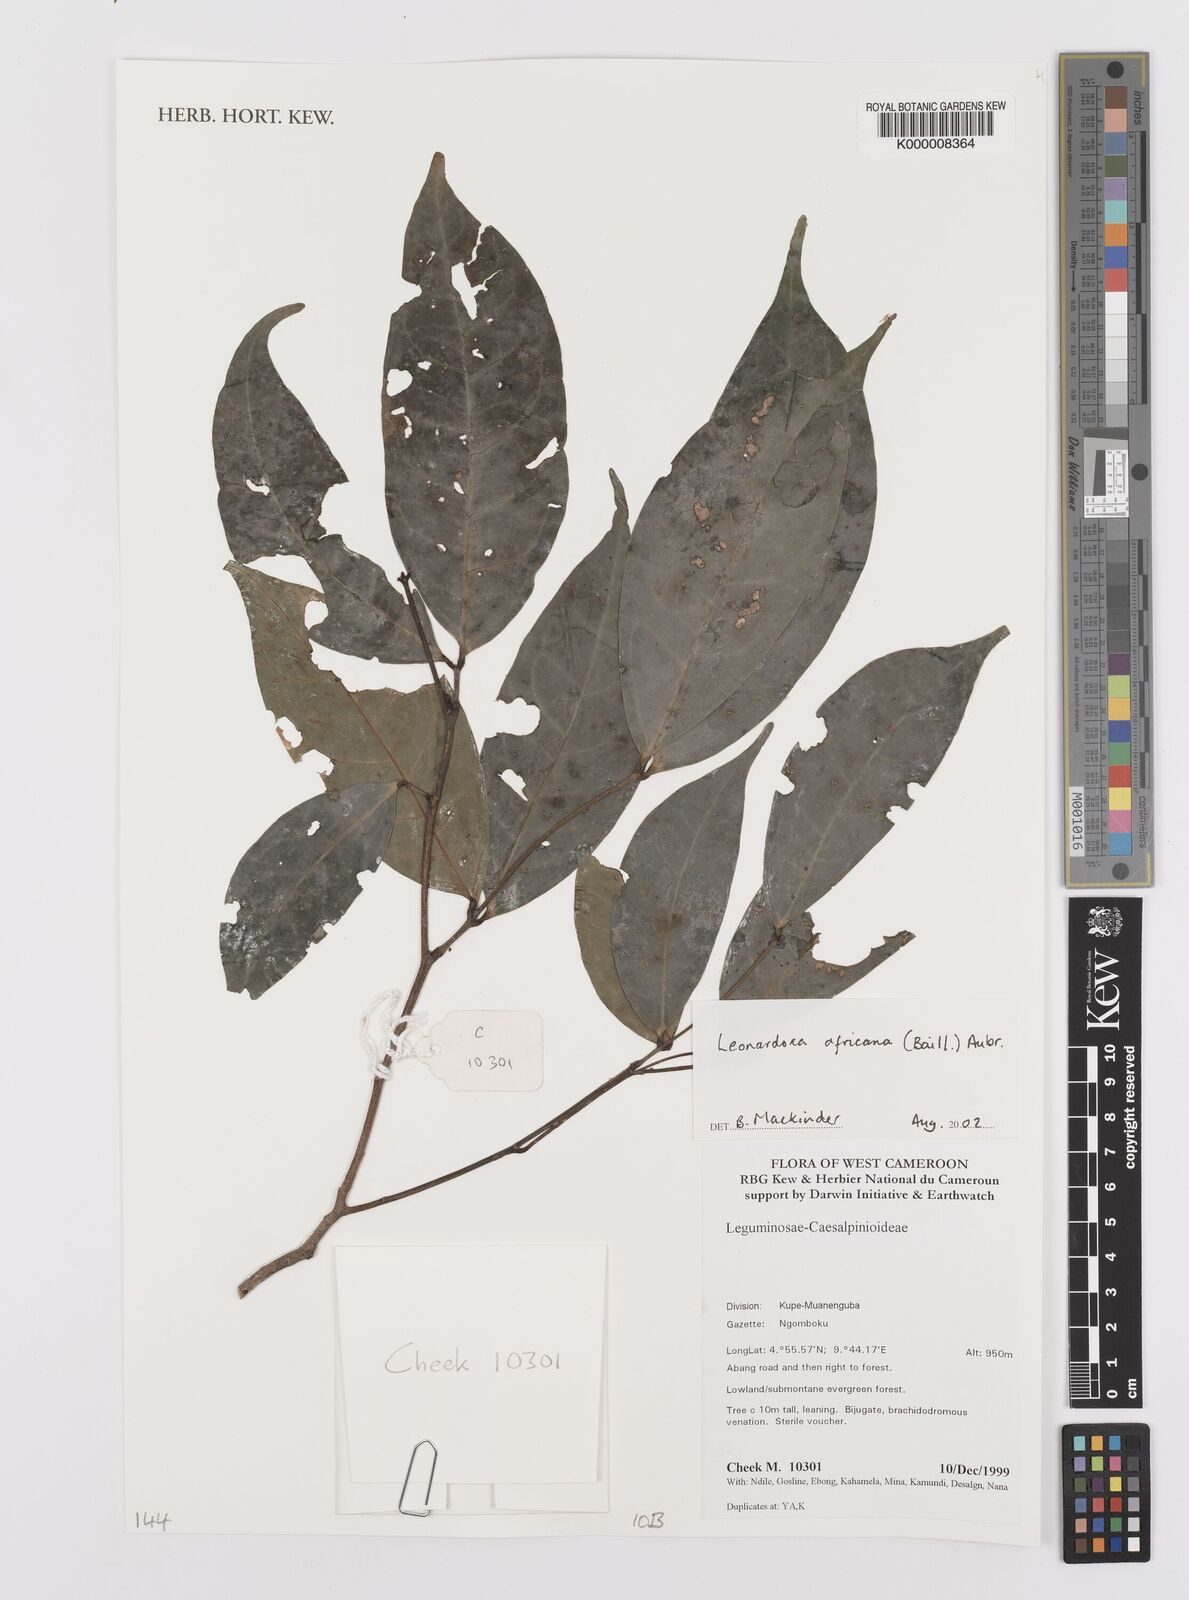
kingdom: Plantae
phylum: Tracheophyta
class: Magnoliopsida
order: Fabales
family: Fabaceae
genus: Leonardoxa
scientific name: Leonardoxa
